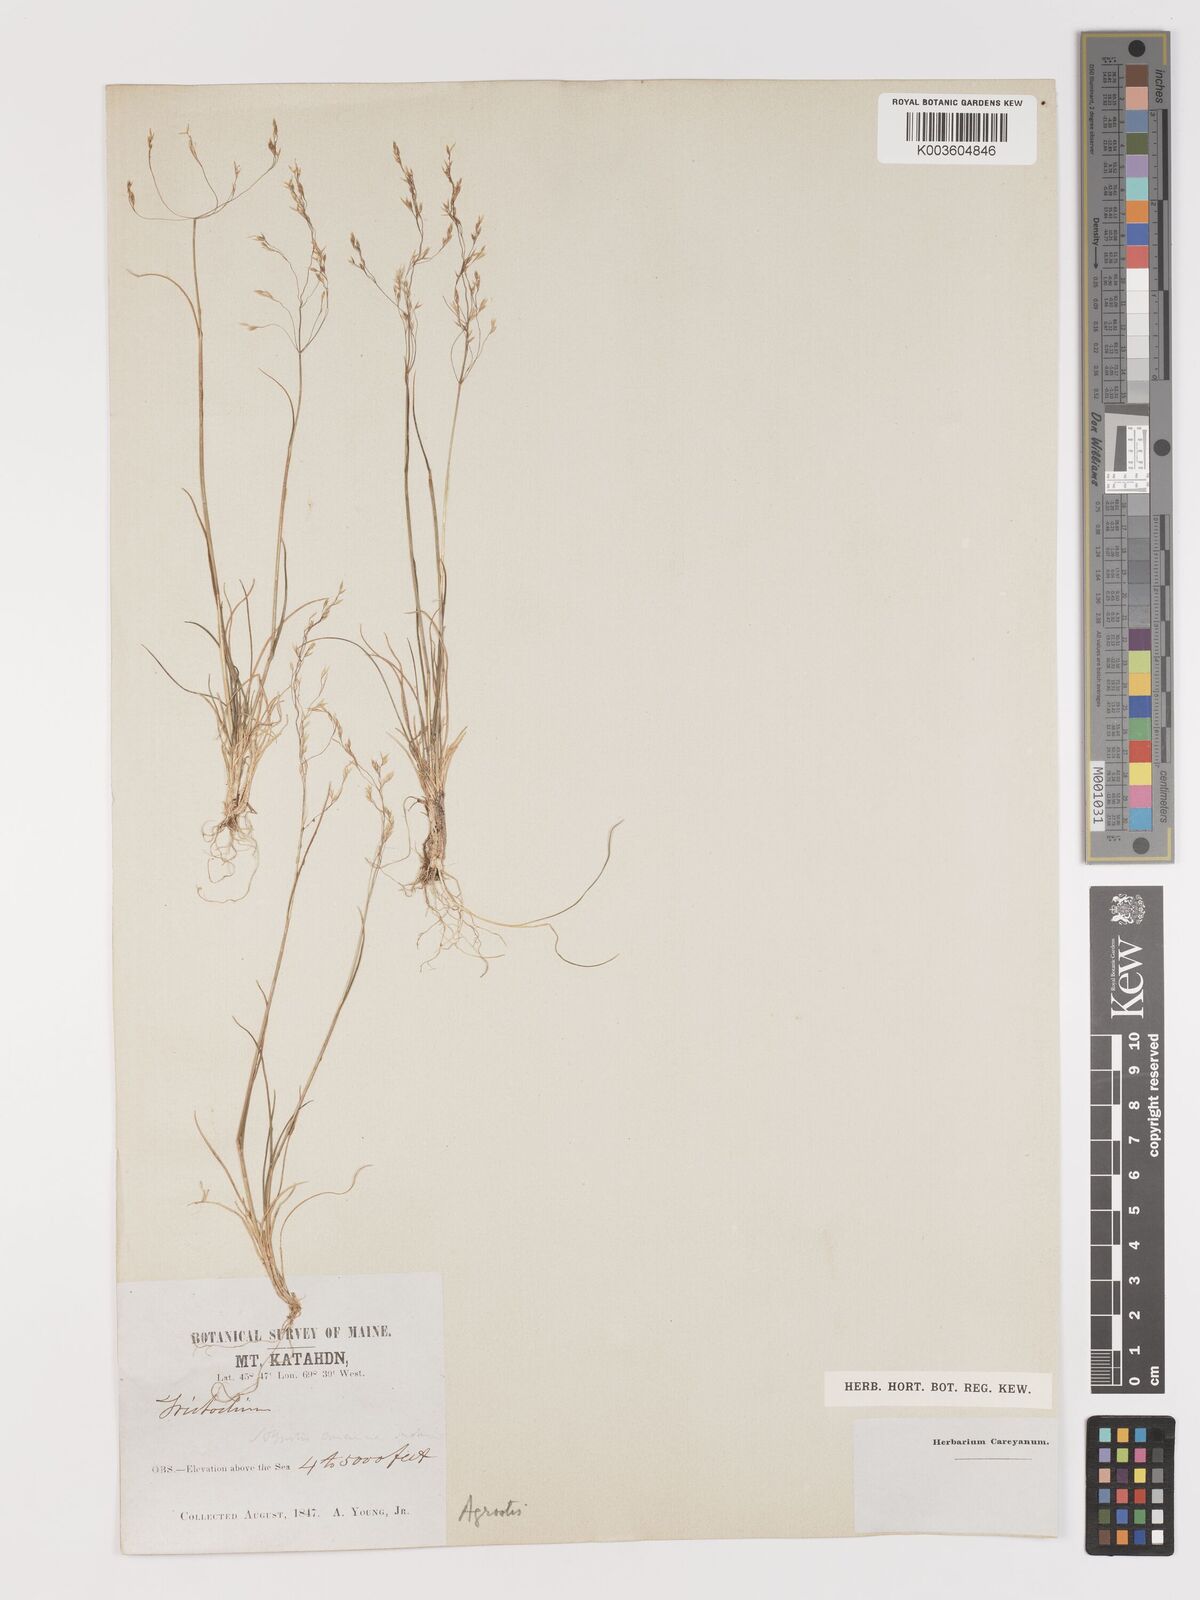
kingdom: Plantae
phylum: Tracheophyta
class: Liliopsida
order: Poales
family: Poaceae
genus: Agrostis
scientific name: Agrostis
